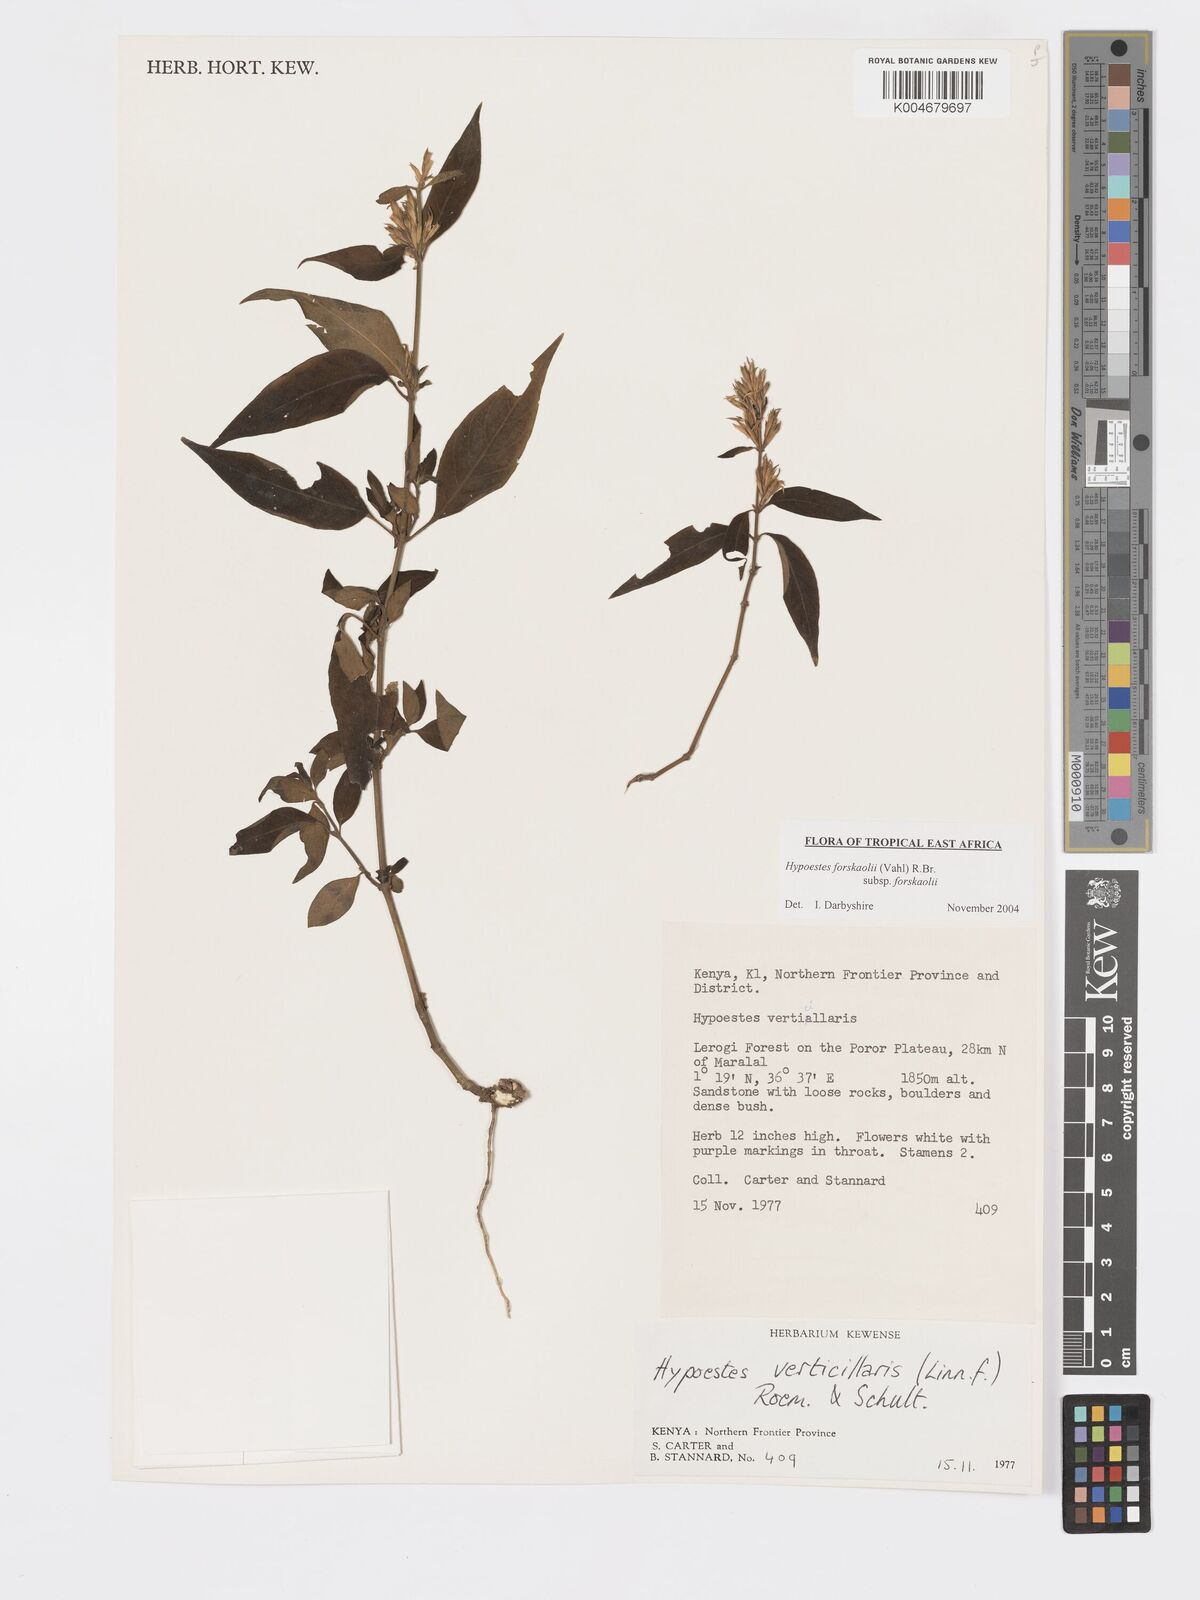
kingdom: Plantae
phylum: Tracheophyta
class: Magnoliopsida
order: Lamiales
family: Acanthaceae
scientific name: Acanthaceae
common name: Acanthaceae
